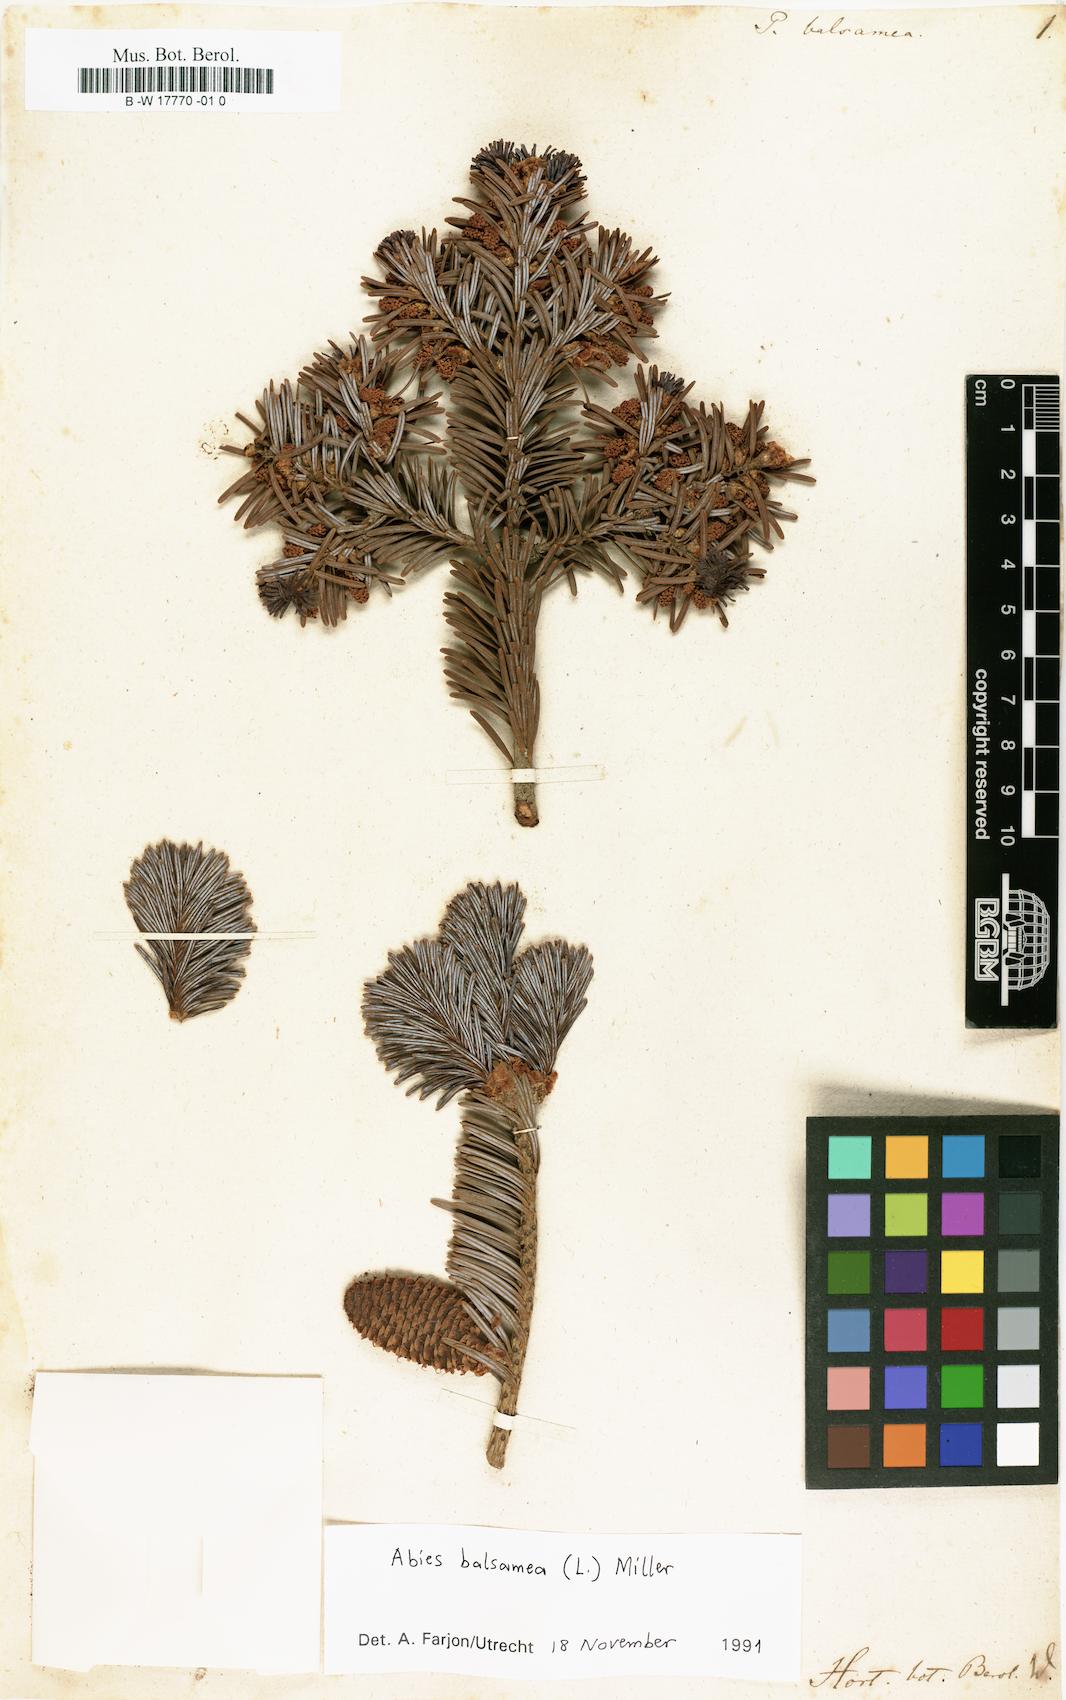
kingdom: Plantae
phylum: Tracheophyta
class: Pinopsida
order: Pinales
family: Pinaceae
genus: Abies
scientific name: Abies balsamea
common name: Balsam fir
